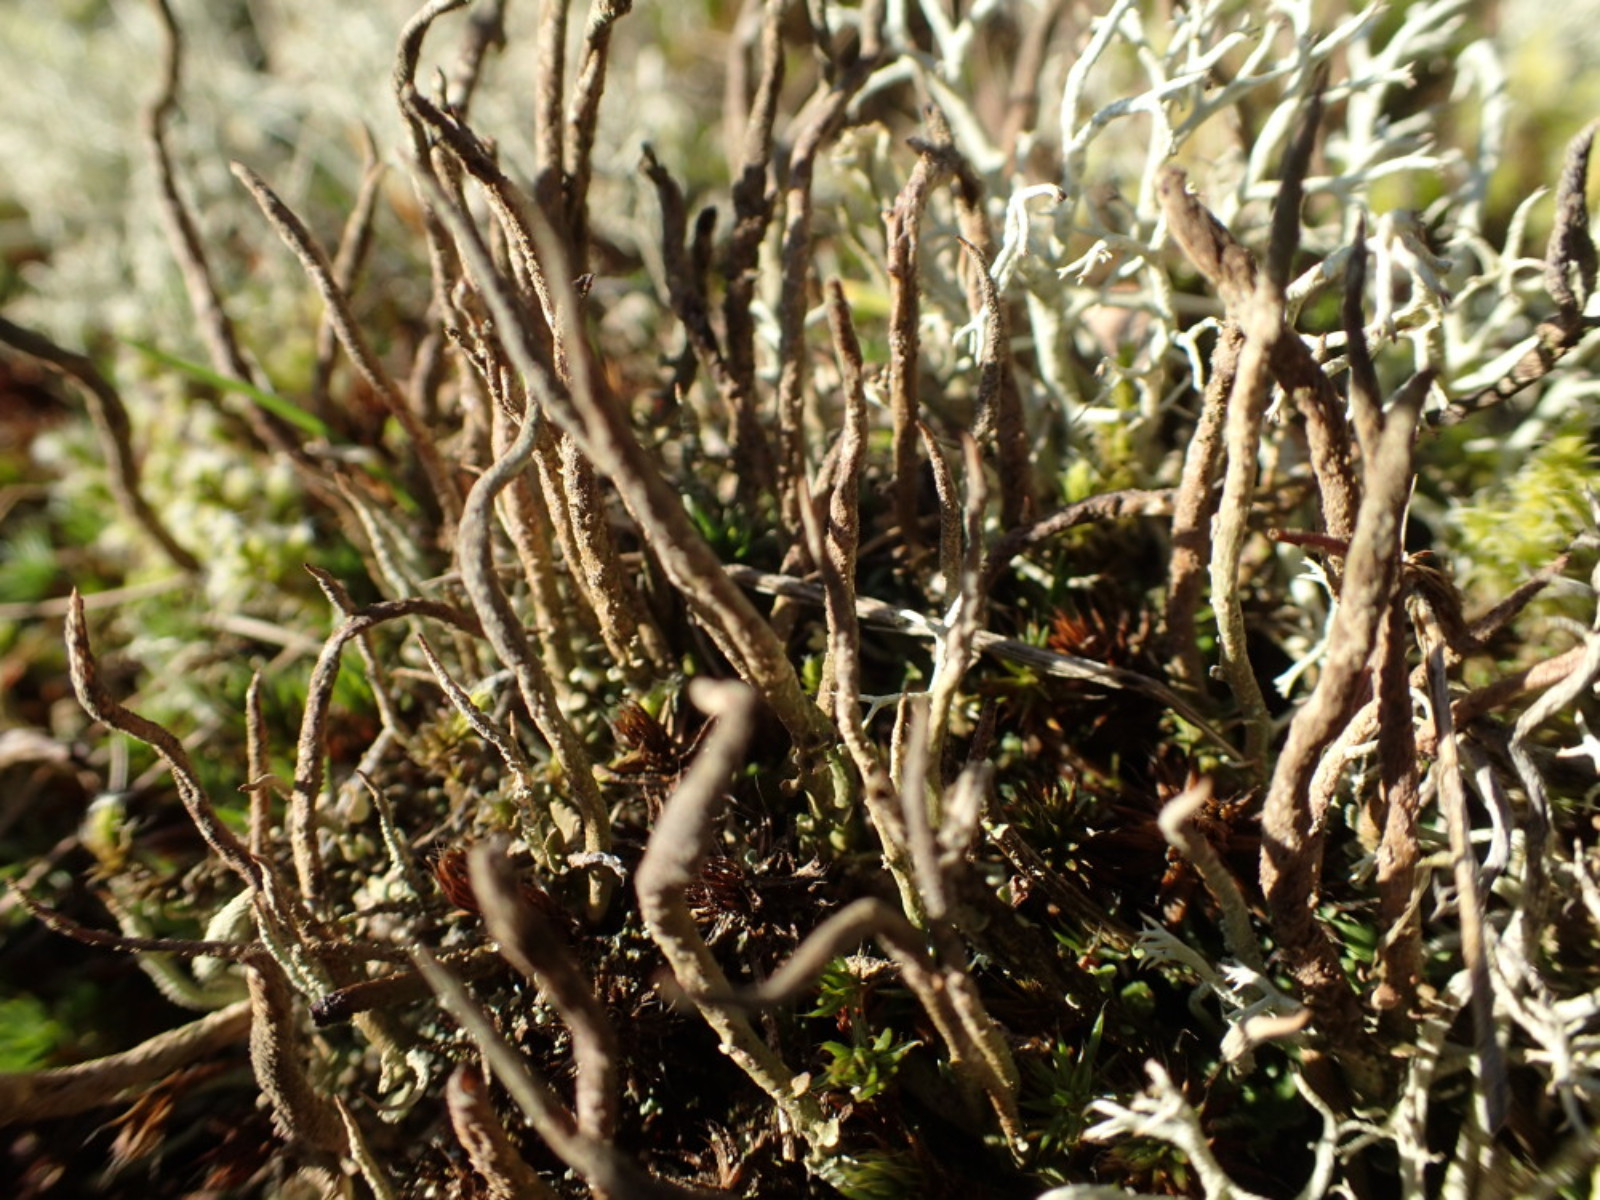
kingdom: Fungi
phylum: Ascomycota
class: Lecanoromycetes
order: Lecanorales
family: Cladoniaceae
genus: Cladonia
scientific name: Cladonia glauca
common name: grågrøn bægerlav
